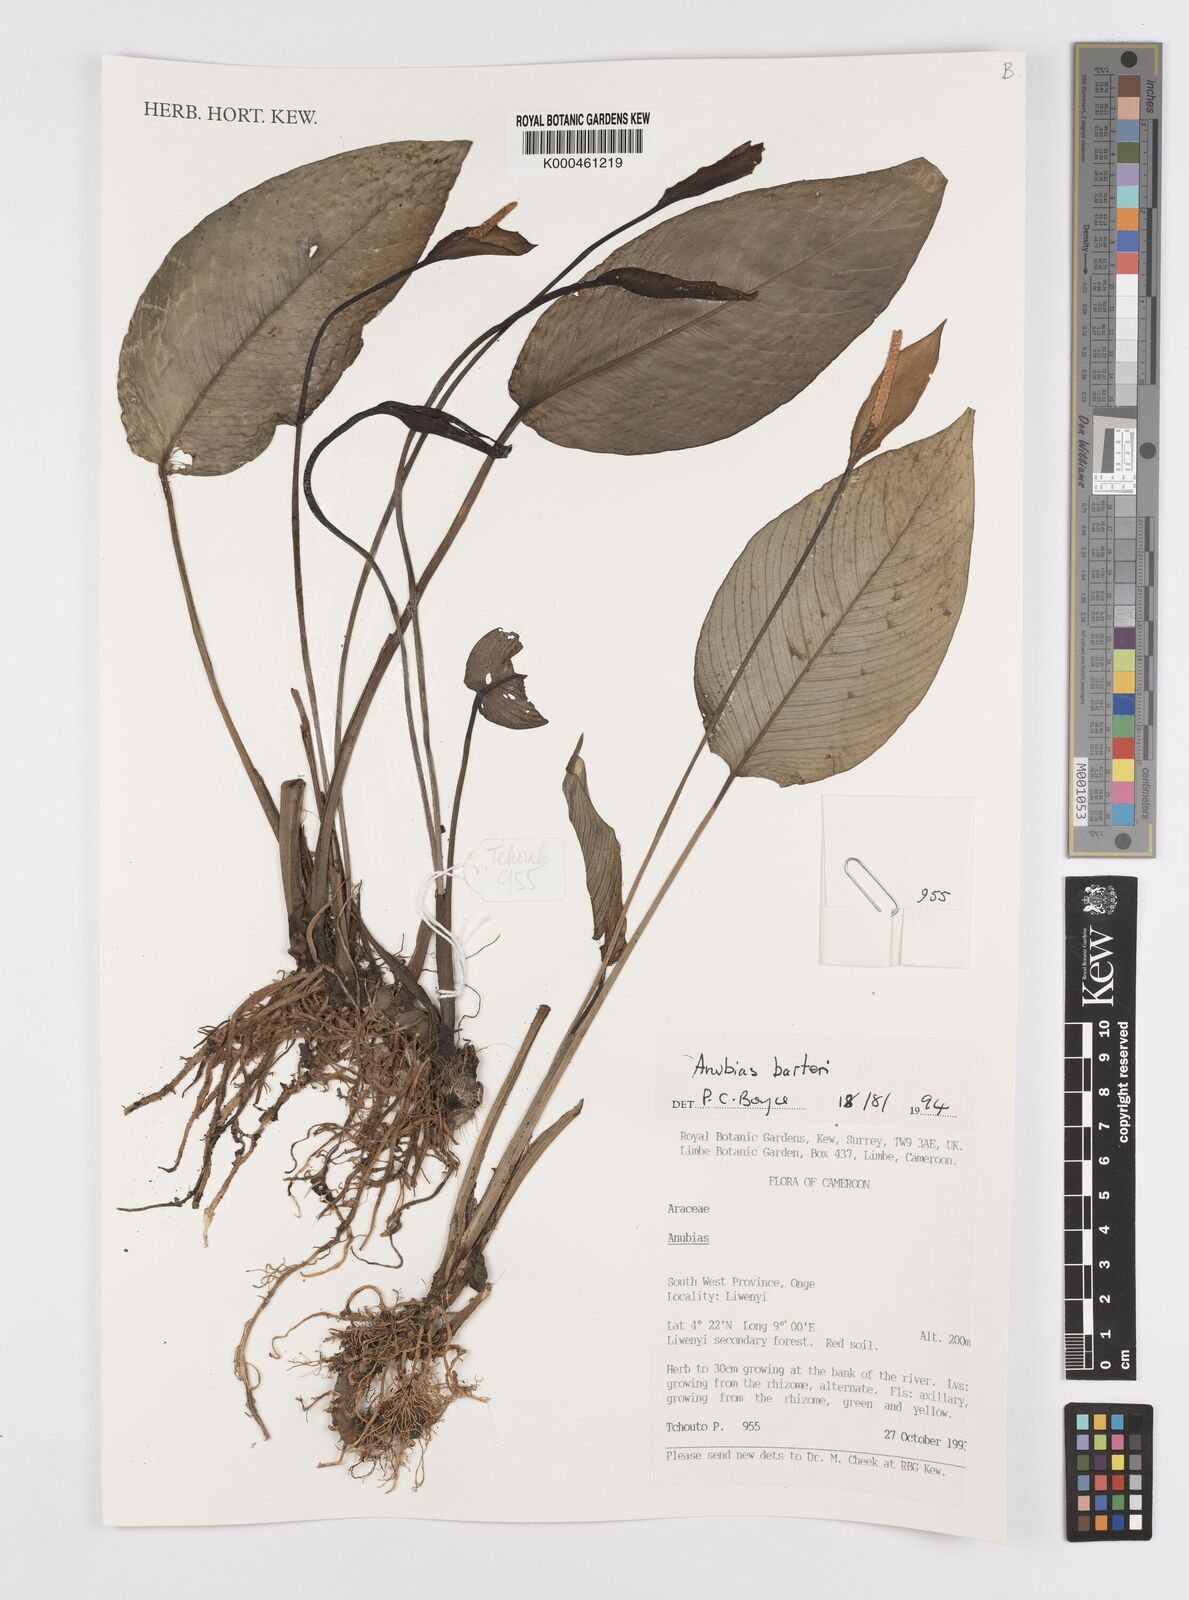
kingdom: Plantae
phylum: Tracheophyta
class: Liliopsida
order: Alismatales
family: Araceae
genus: Anubias
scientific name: Anubias barteri
